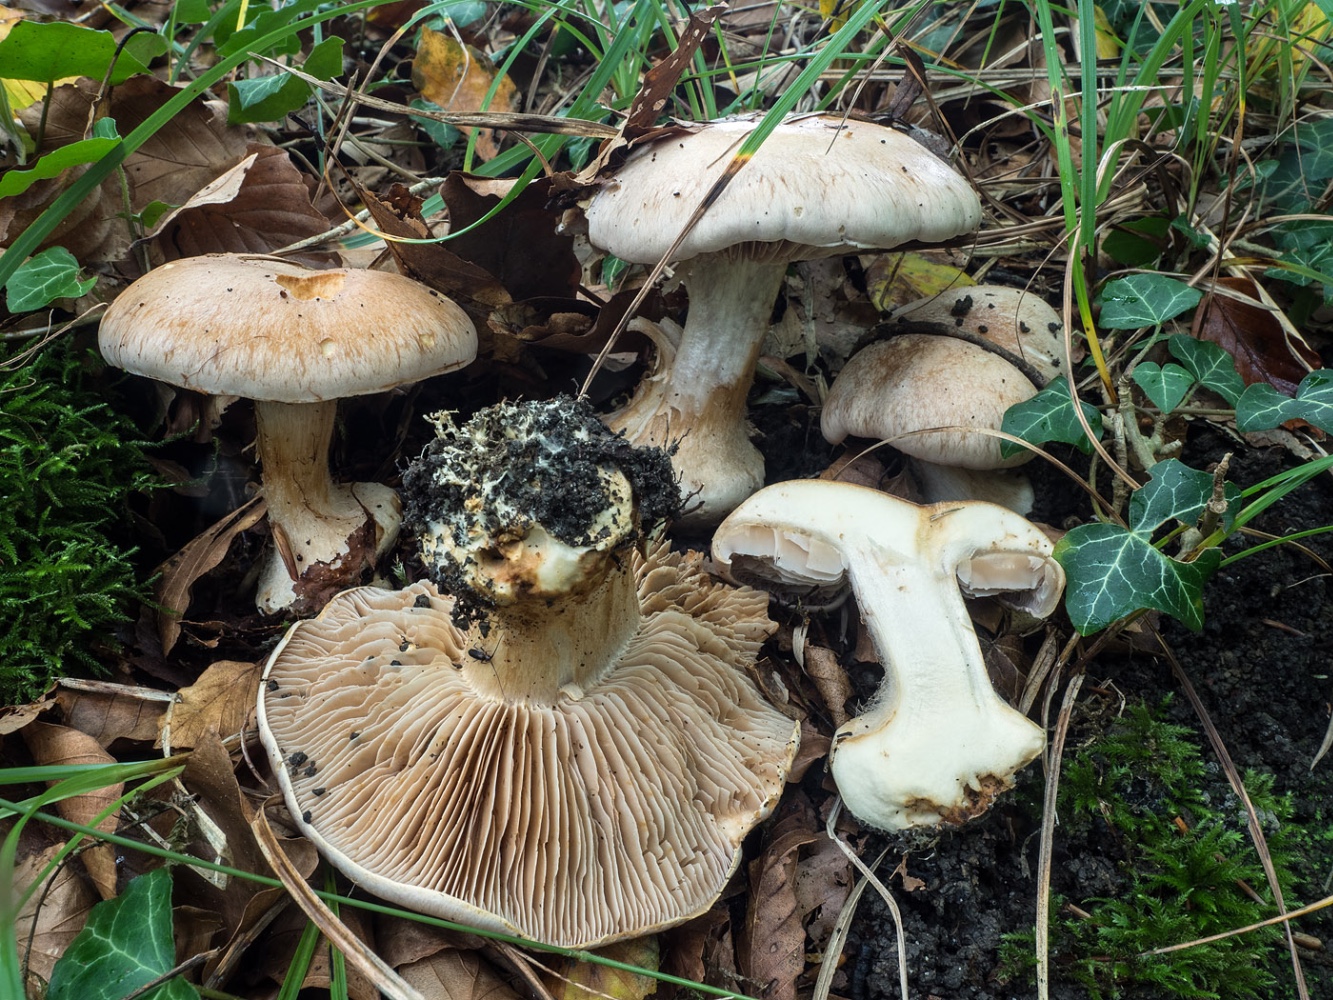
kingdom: Fungi
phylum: Basidiomycota
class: Agaricomycetes
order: Agaricales
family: Cortinariaceae
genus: Phlegmacium
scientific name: Phlegmacium coerulescentium
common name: gråbladet slørhat
